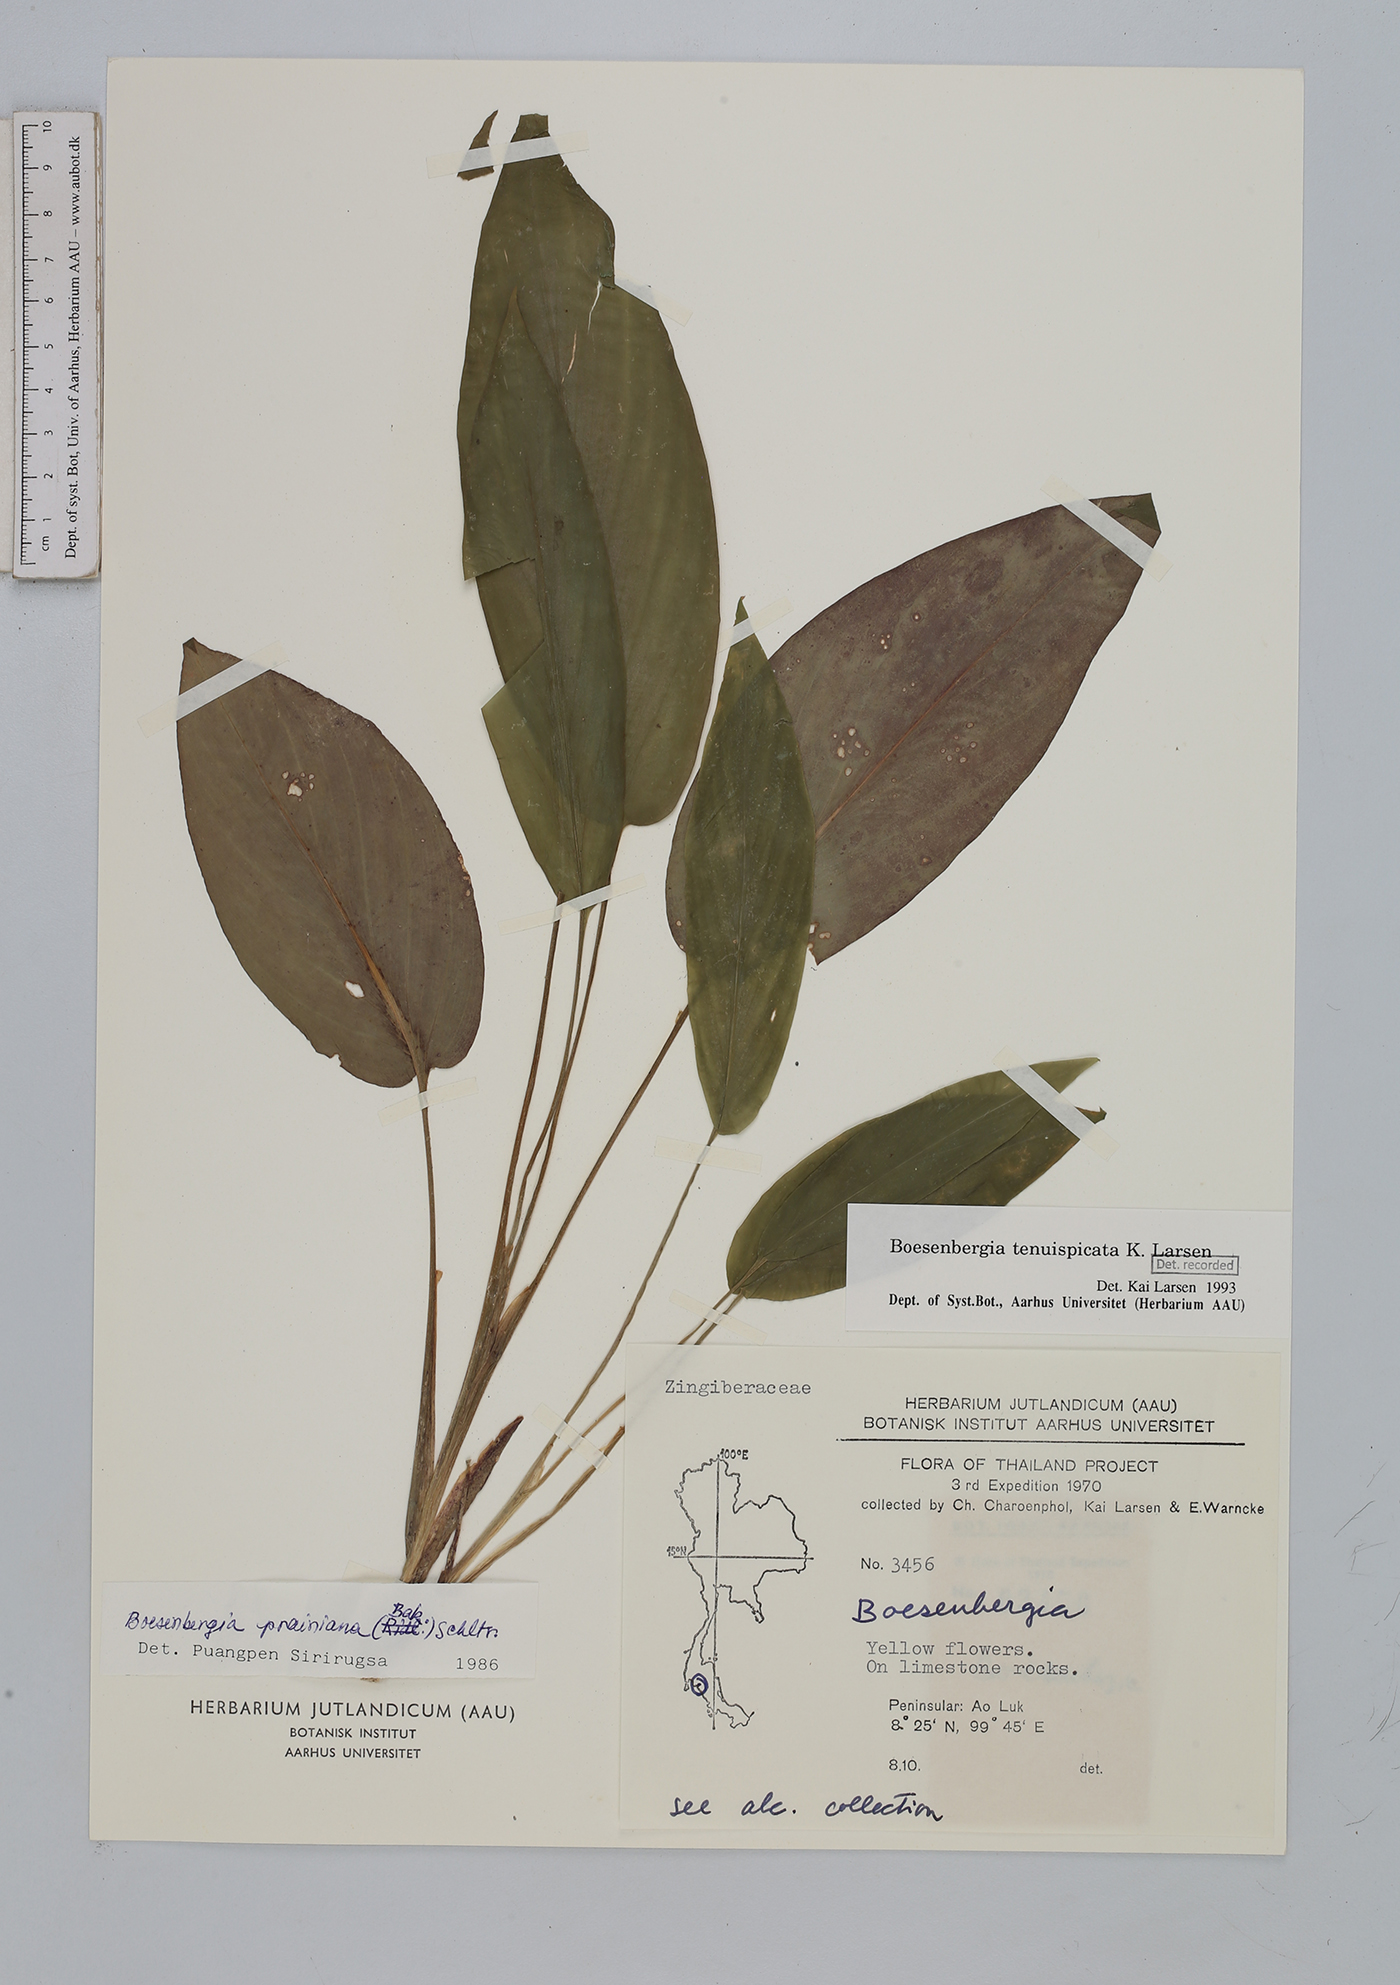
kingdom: Plantae
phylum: Tracheophyta
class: Liliopsida
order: Zingiberales
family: Zingiberaceae
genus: Boesenbergia
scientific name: Boesenbergia tenuispicata
